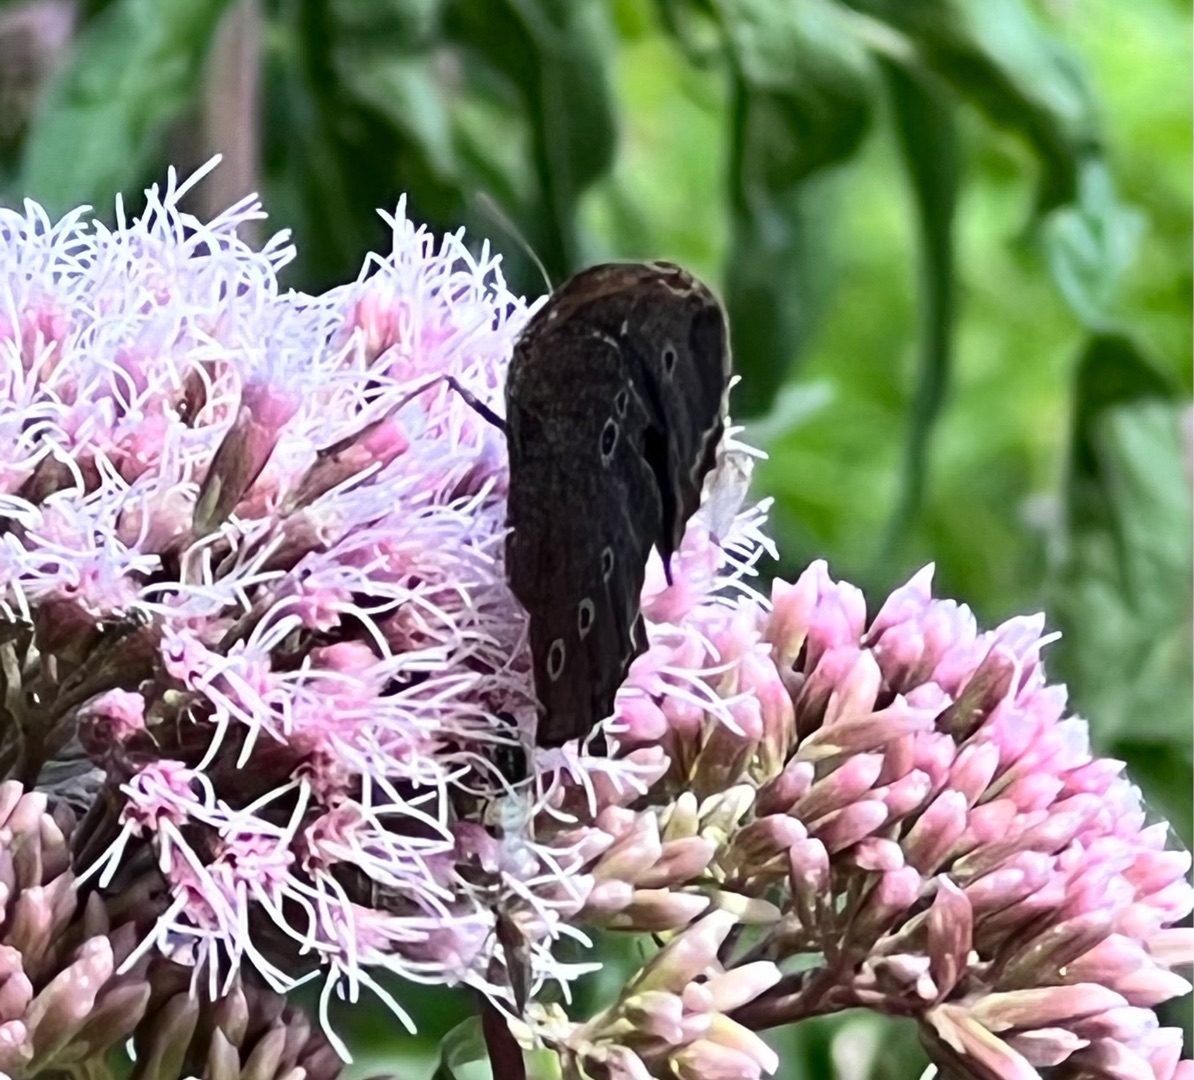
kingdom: Animalia
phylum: Arthropoda
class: Insecta
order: Lepidoptera
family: Nymphalidae
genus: Aphantopus
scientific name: Aphantopus hyperantus
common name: Engrandøje
